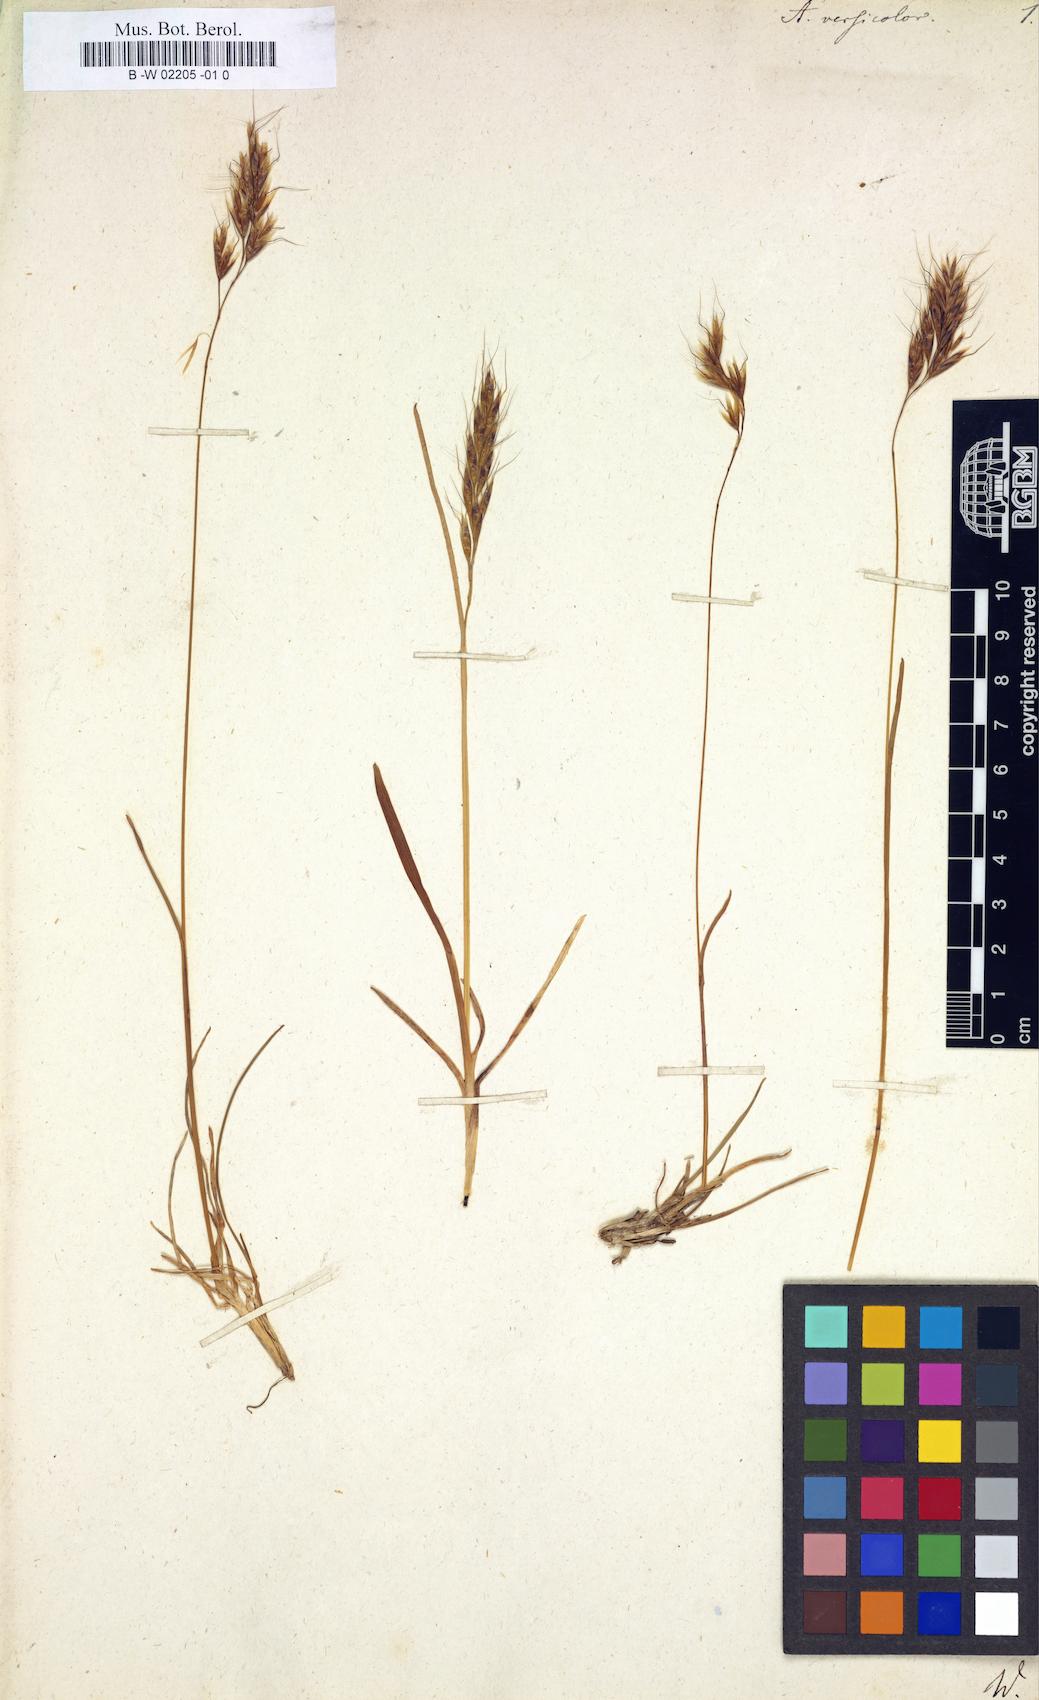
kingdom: Plantae
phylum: Tracheophyta
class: Liliopsida
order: Poales
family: Poaceae
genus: Helictochloa
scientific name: Helictochloa versicolor
